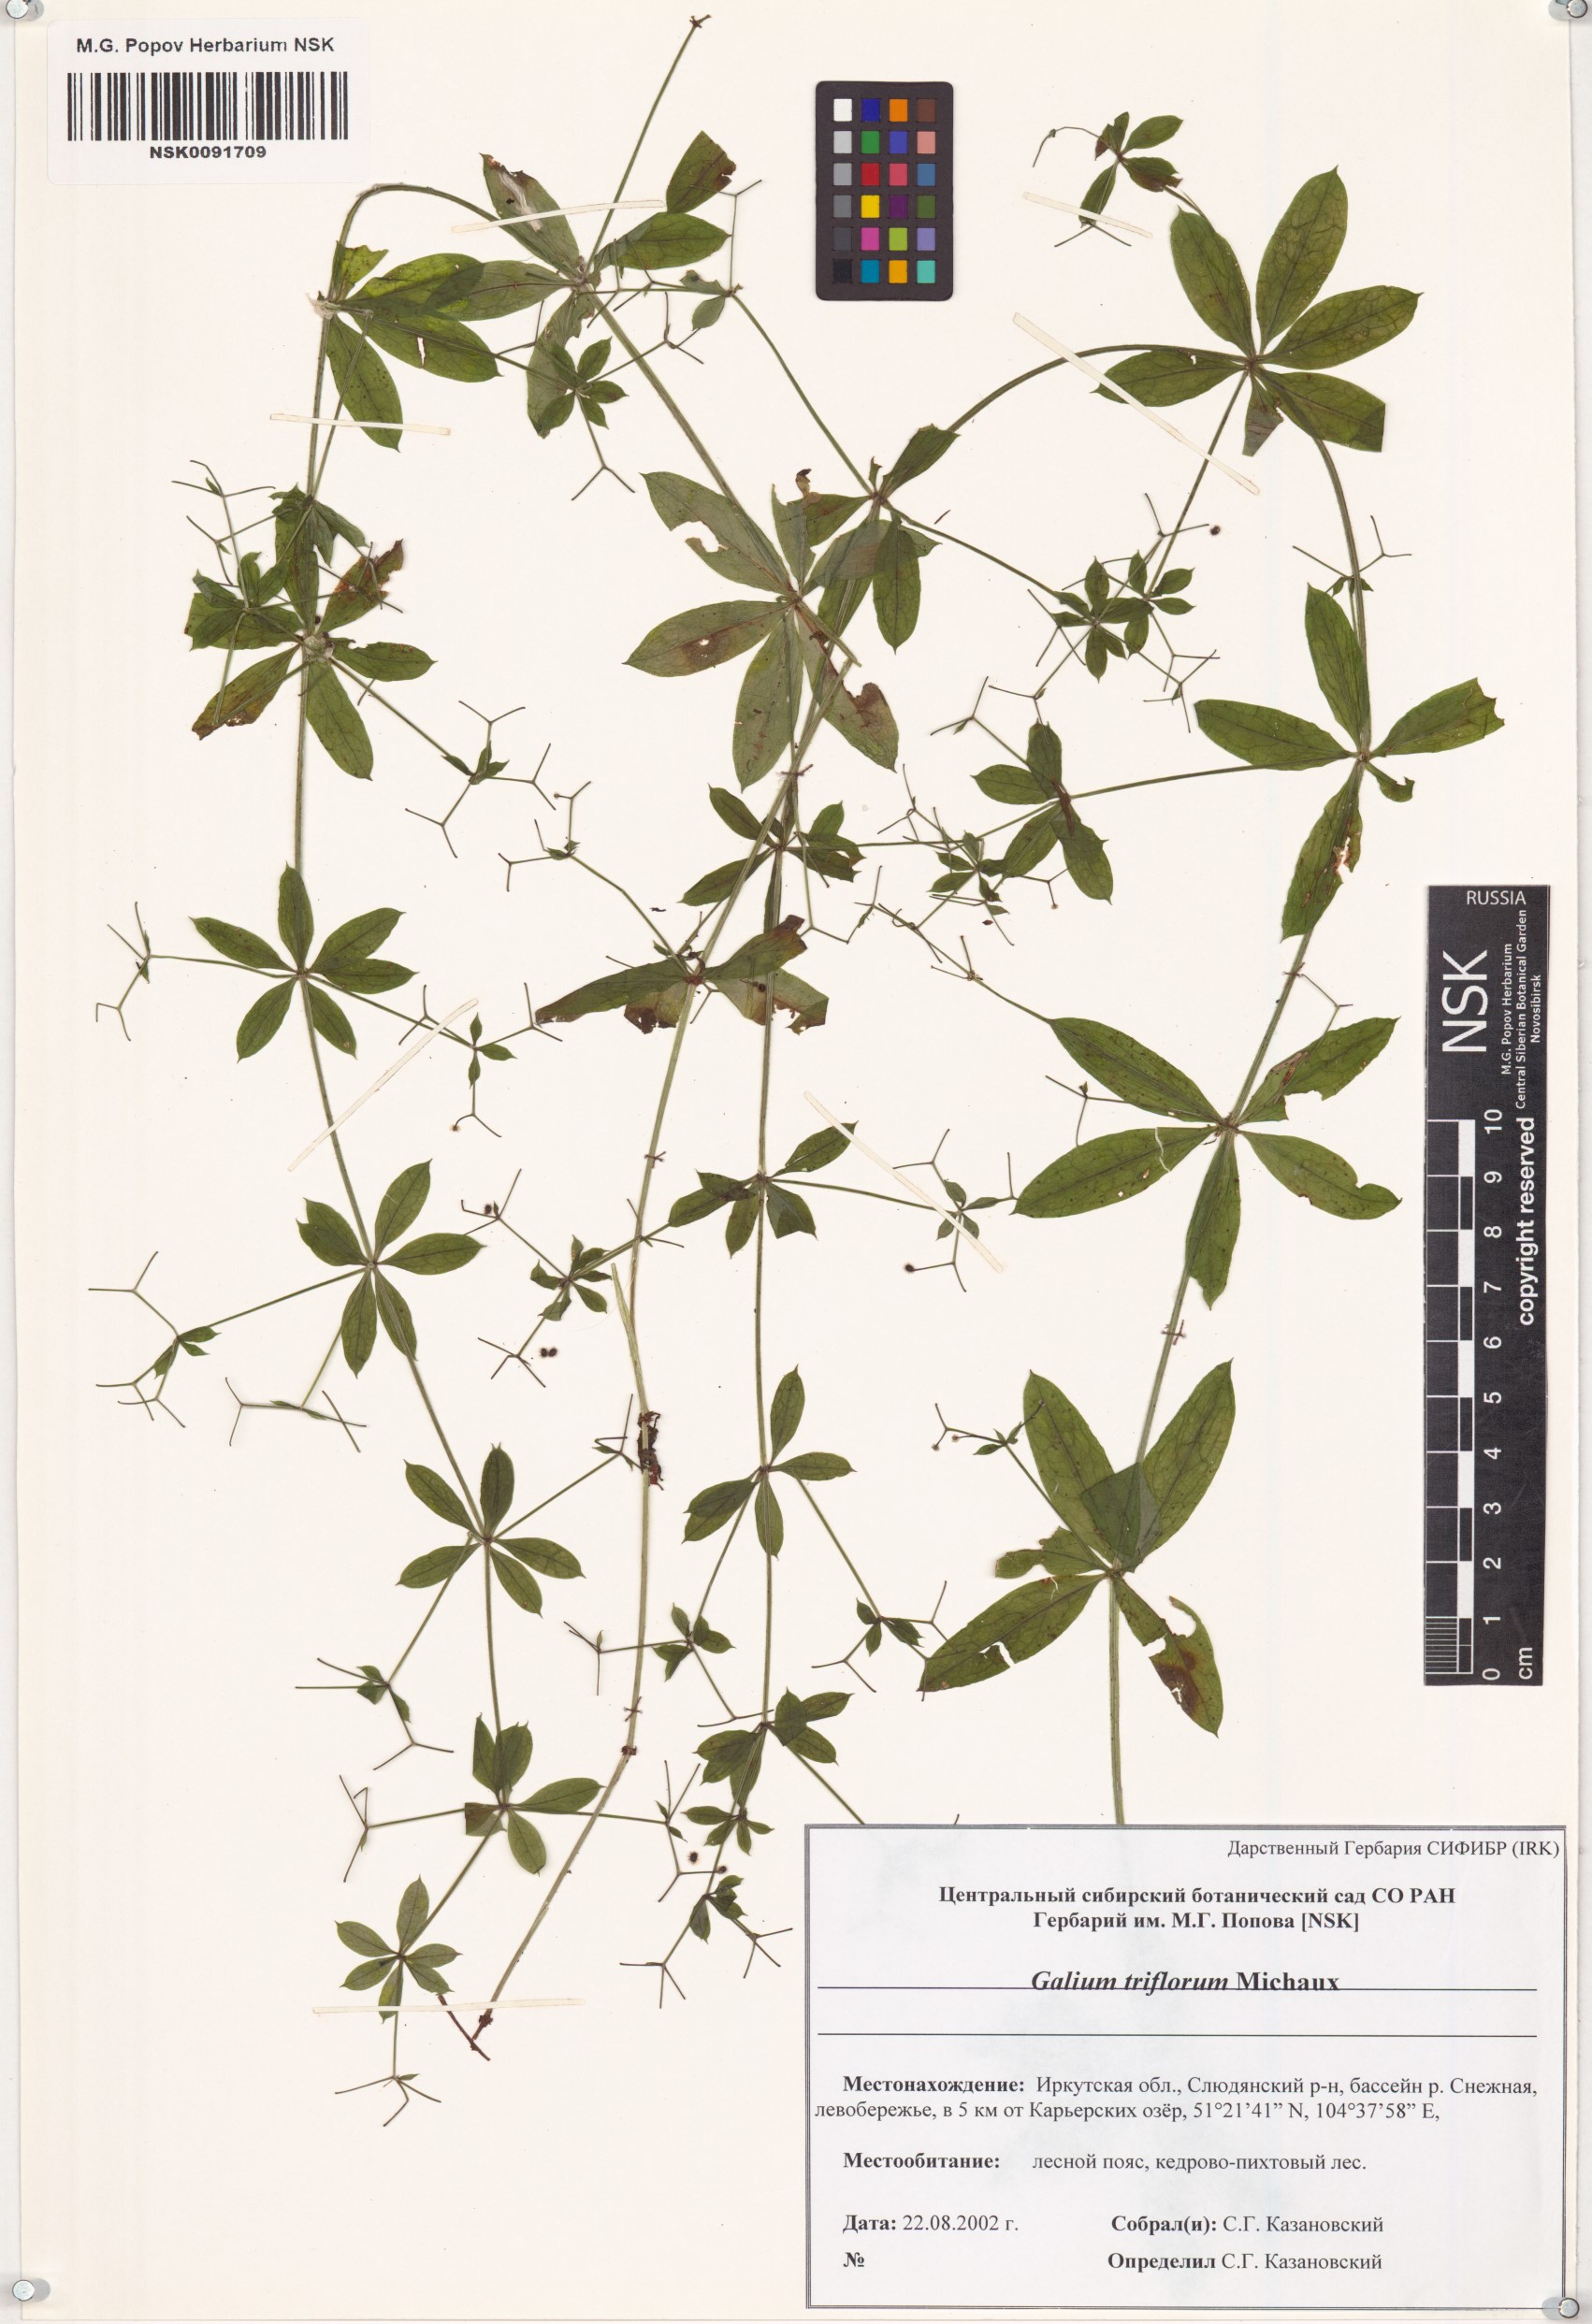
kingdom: Plantae
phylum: Tracheophyta
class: Magnoliopsida
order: Gentianales
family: Rubiaceae
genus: Galium
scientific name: Galium triflorum
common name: Fragrant bedstraw
